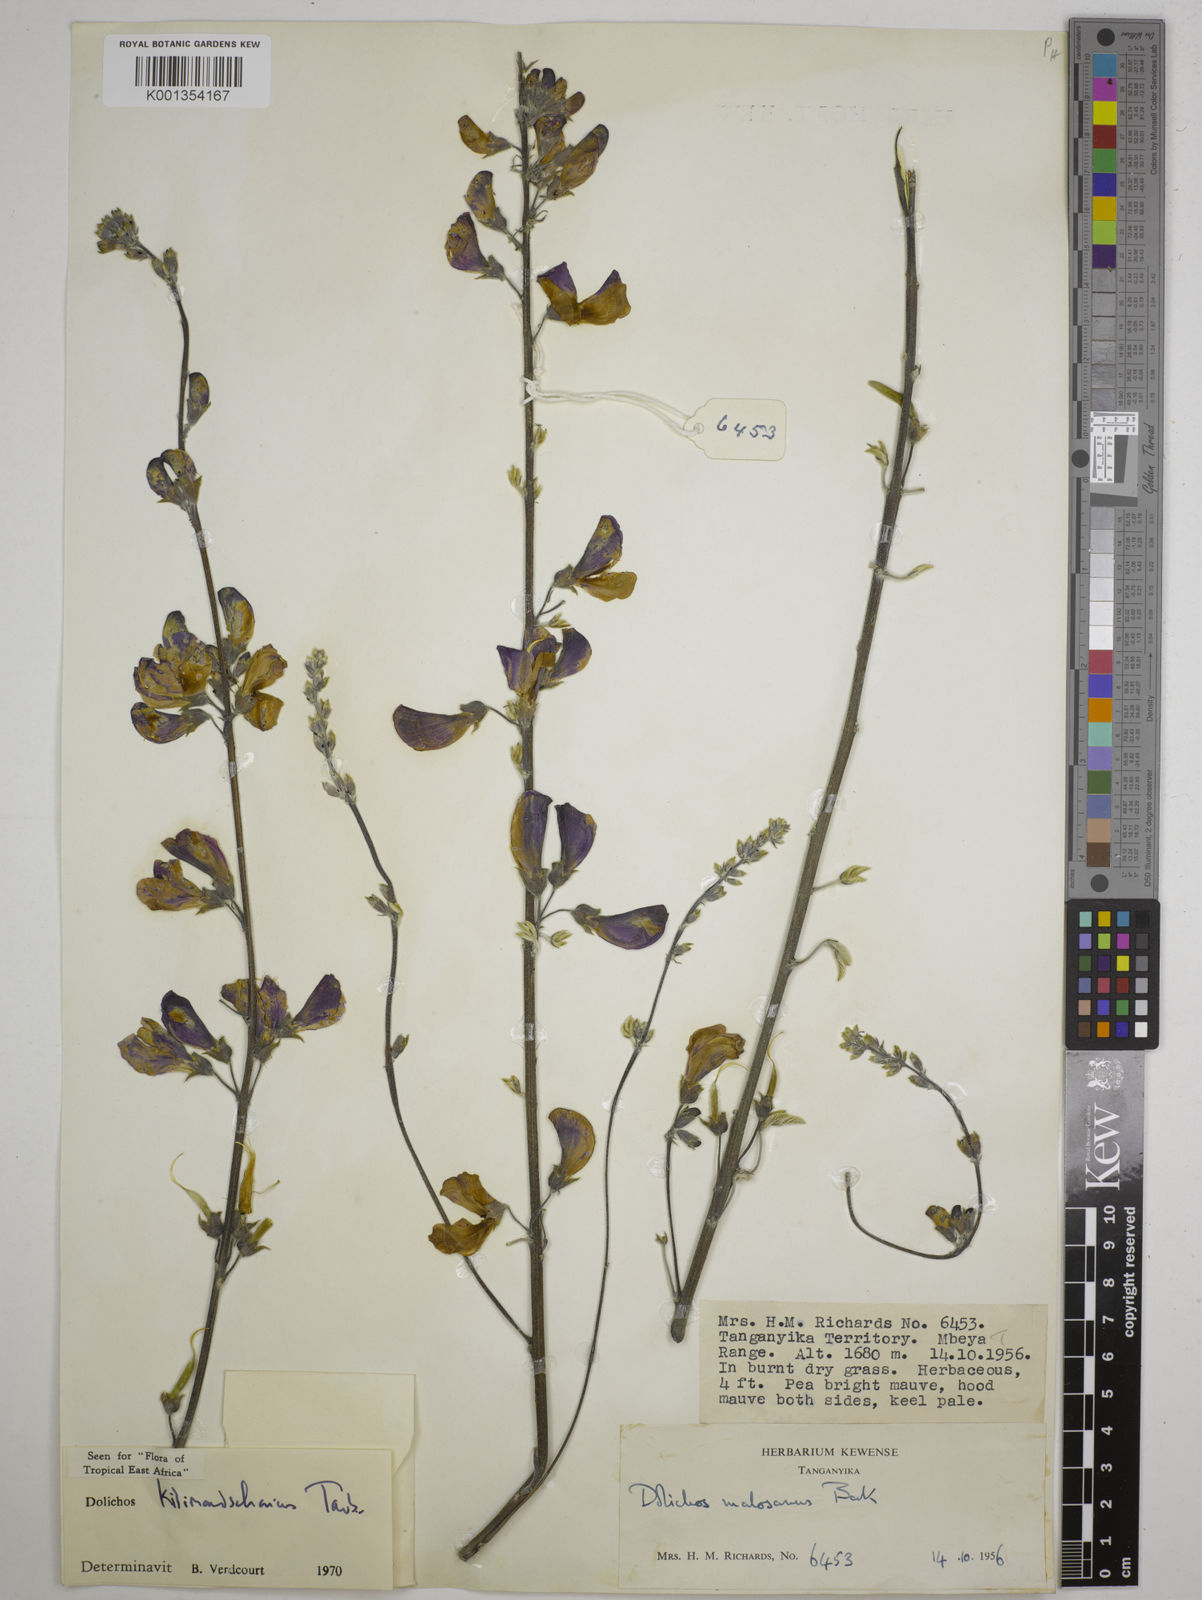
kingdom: Plantae
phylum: Tracheophyta
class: Magnoliopsida
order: Fabales
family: Fabaceae
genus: Dolichos
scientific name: Dolichos kilimandscharicus
